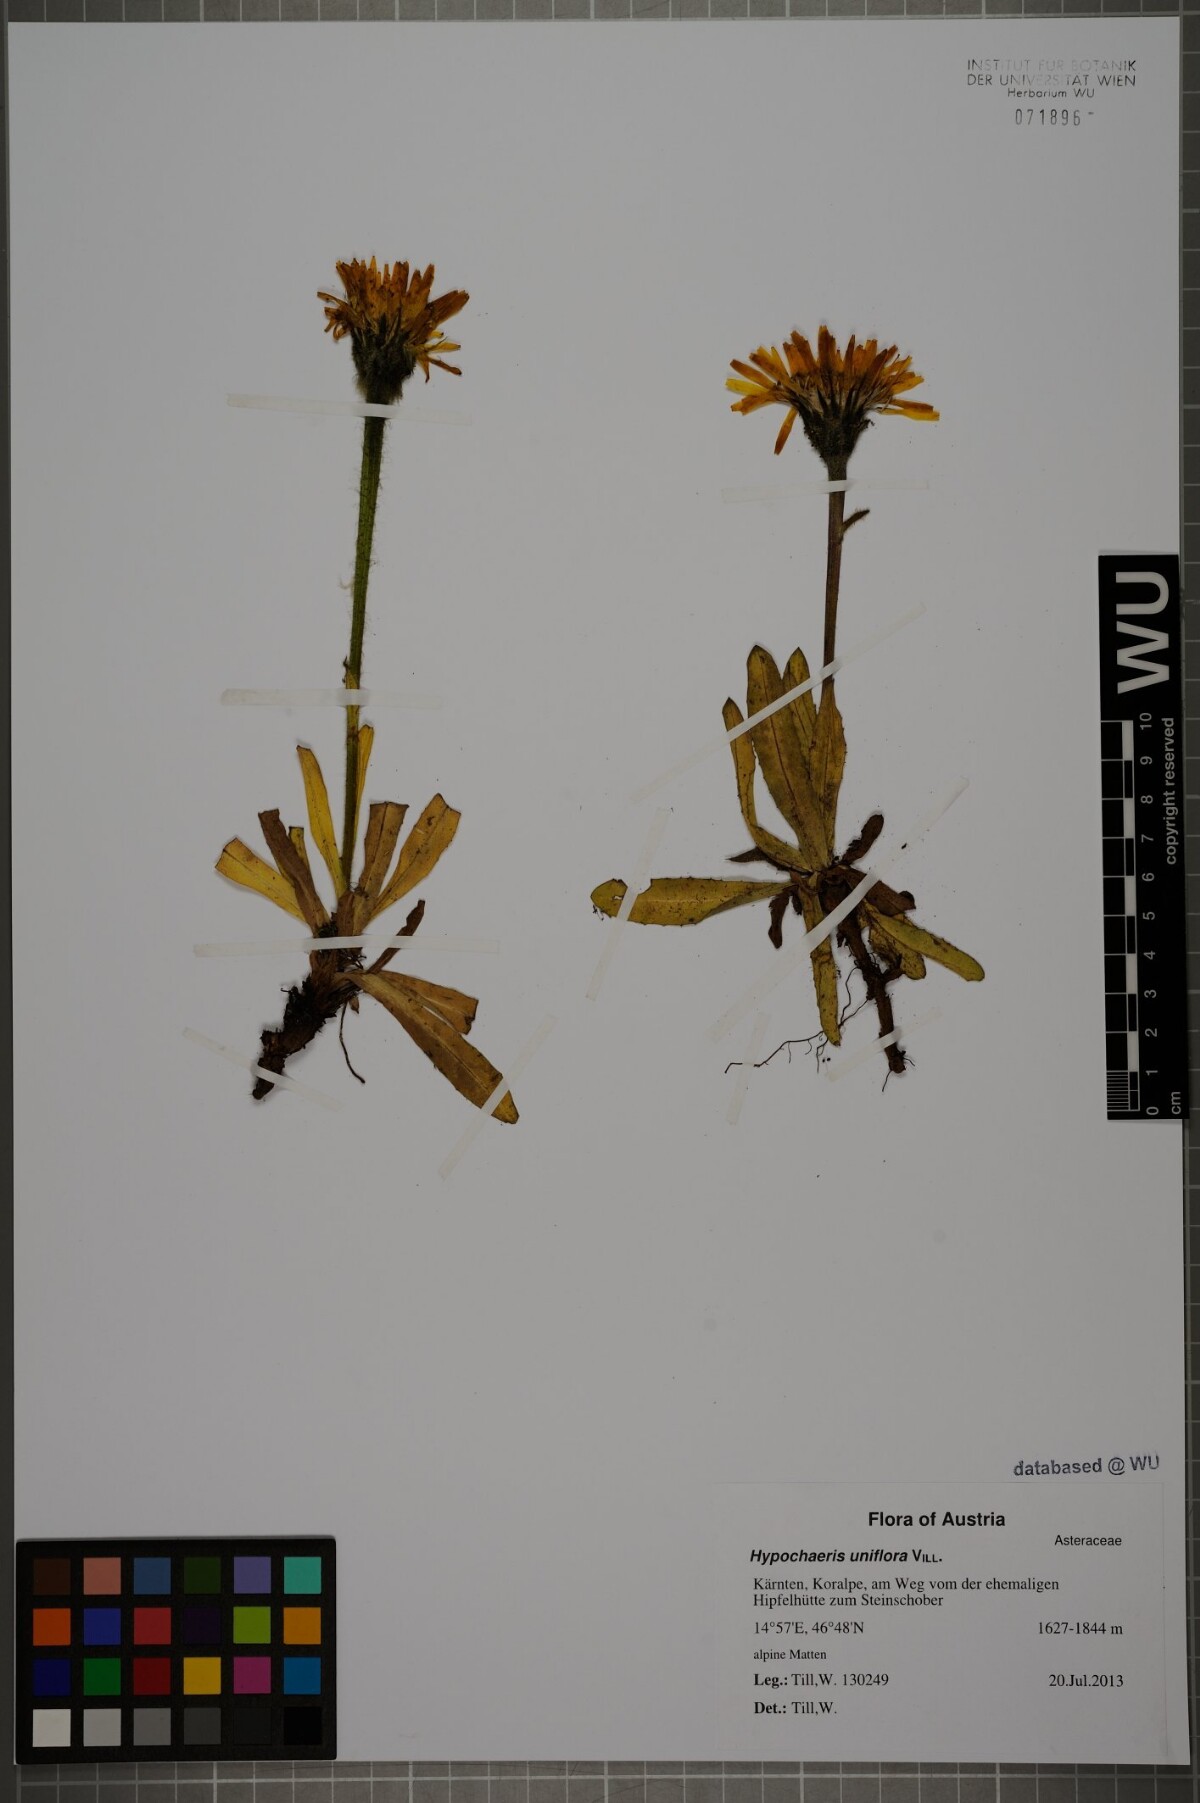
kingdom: Plantae
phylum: Tracheophyta
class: Magnoliopsida
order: Asterales
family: Asteraceae
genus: Trommsdorffia
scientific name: Trommsdorffia uniflora
